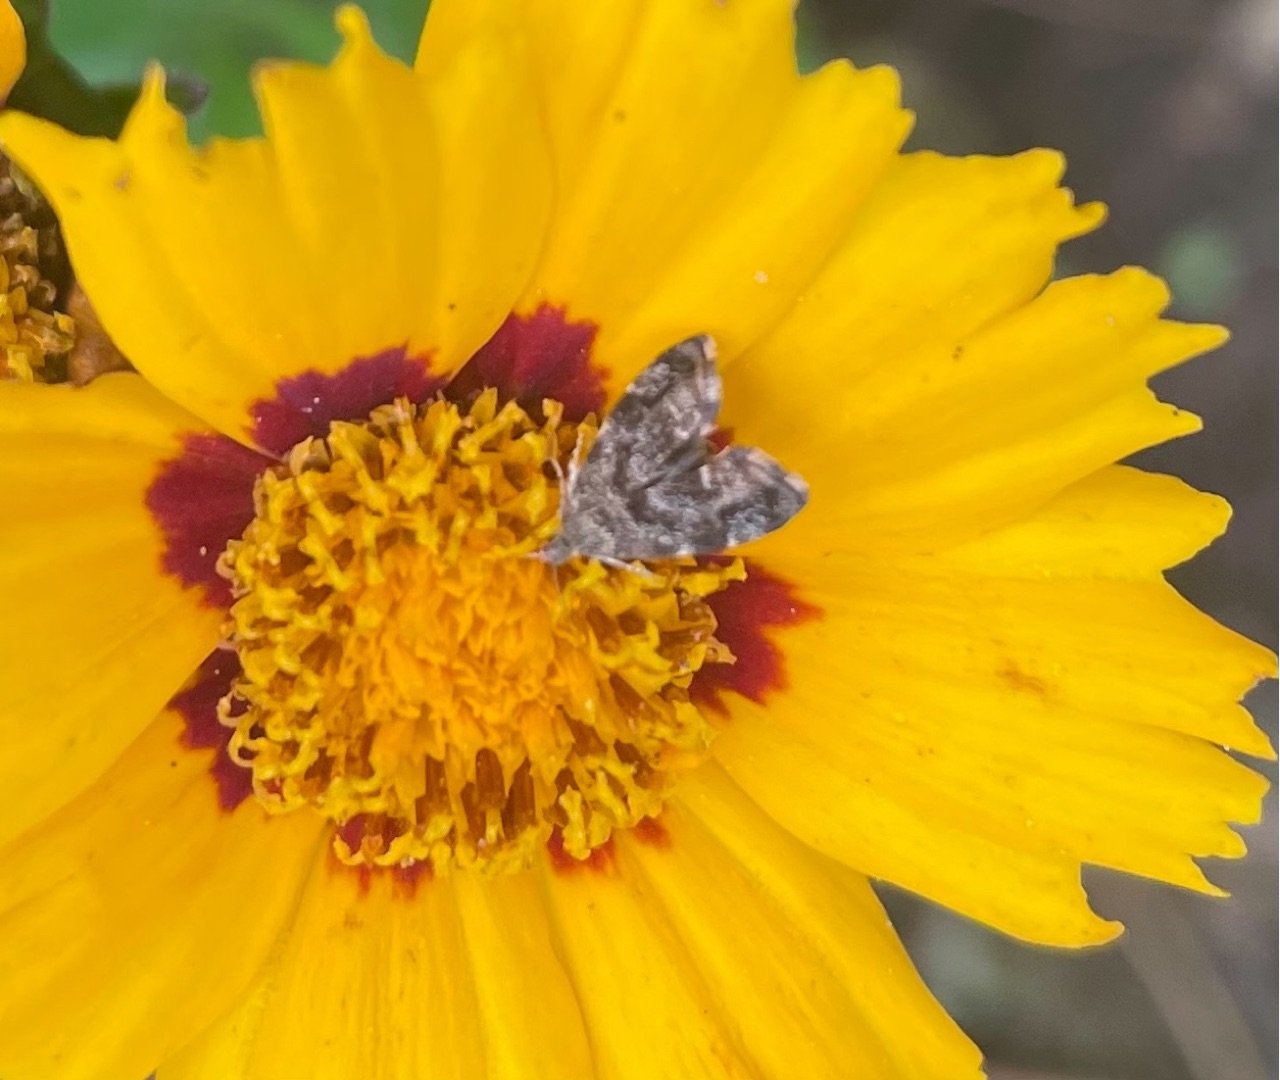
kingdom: Animalia
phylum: Arthropoda
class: Insecta
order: Lepidoptera
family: Choreutidae
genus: Anthophila
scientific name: Anthophila fabriciana
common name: Bredvinget nældevikler
